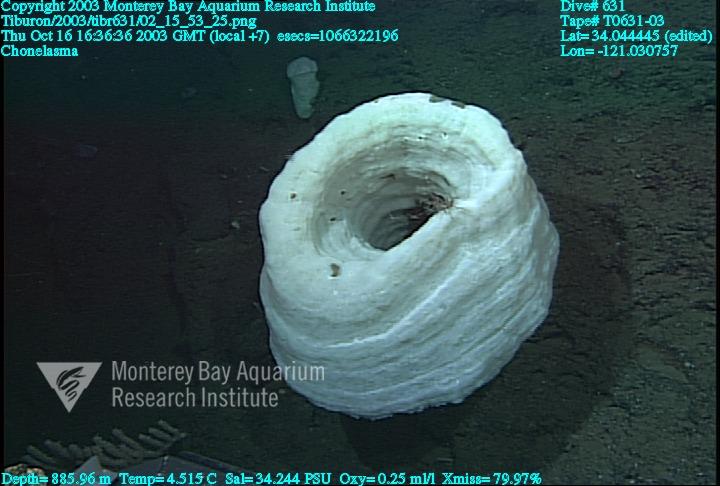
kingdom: Animalia
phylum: Porifera
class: Hexactinellida
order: Sceptrulophora
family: Euretidae
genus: Chonelasma
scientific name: Chonelasma
